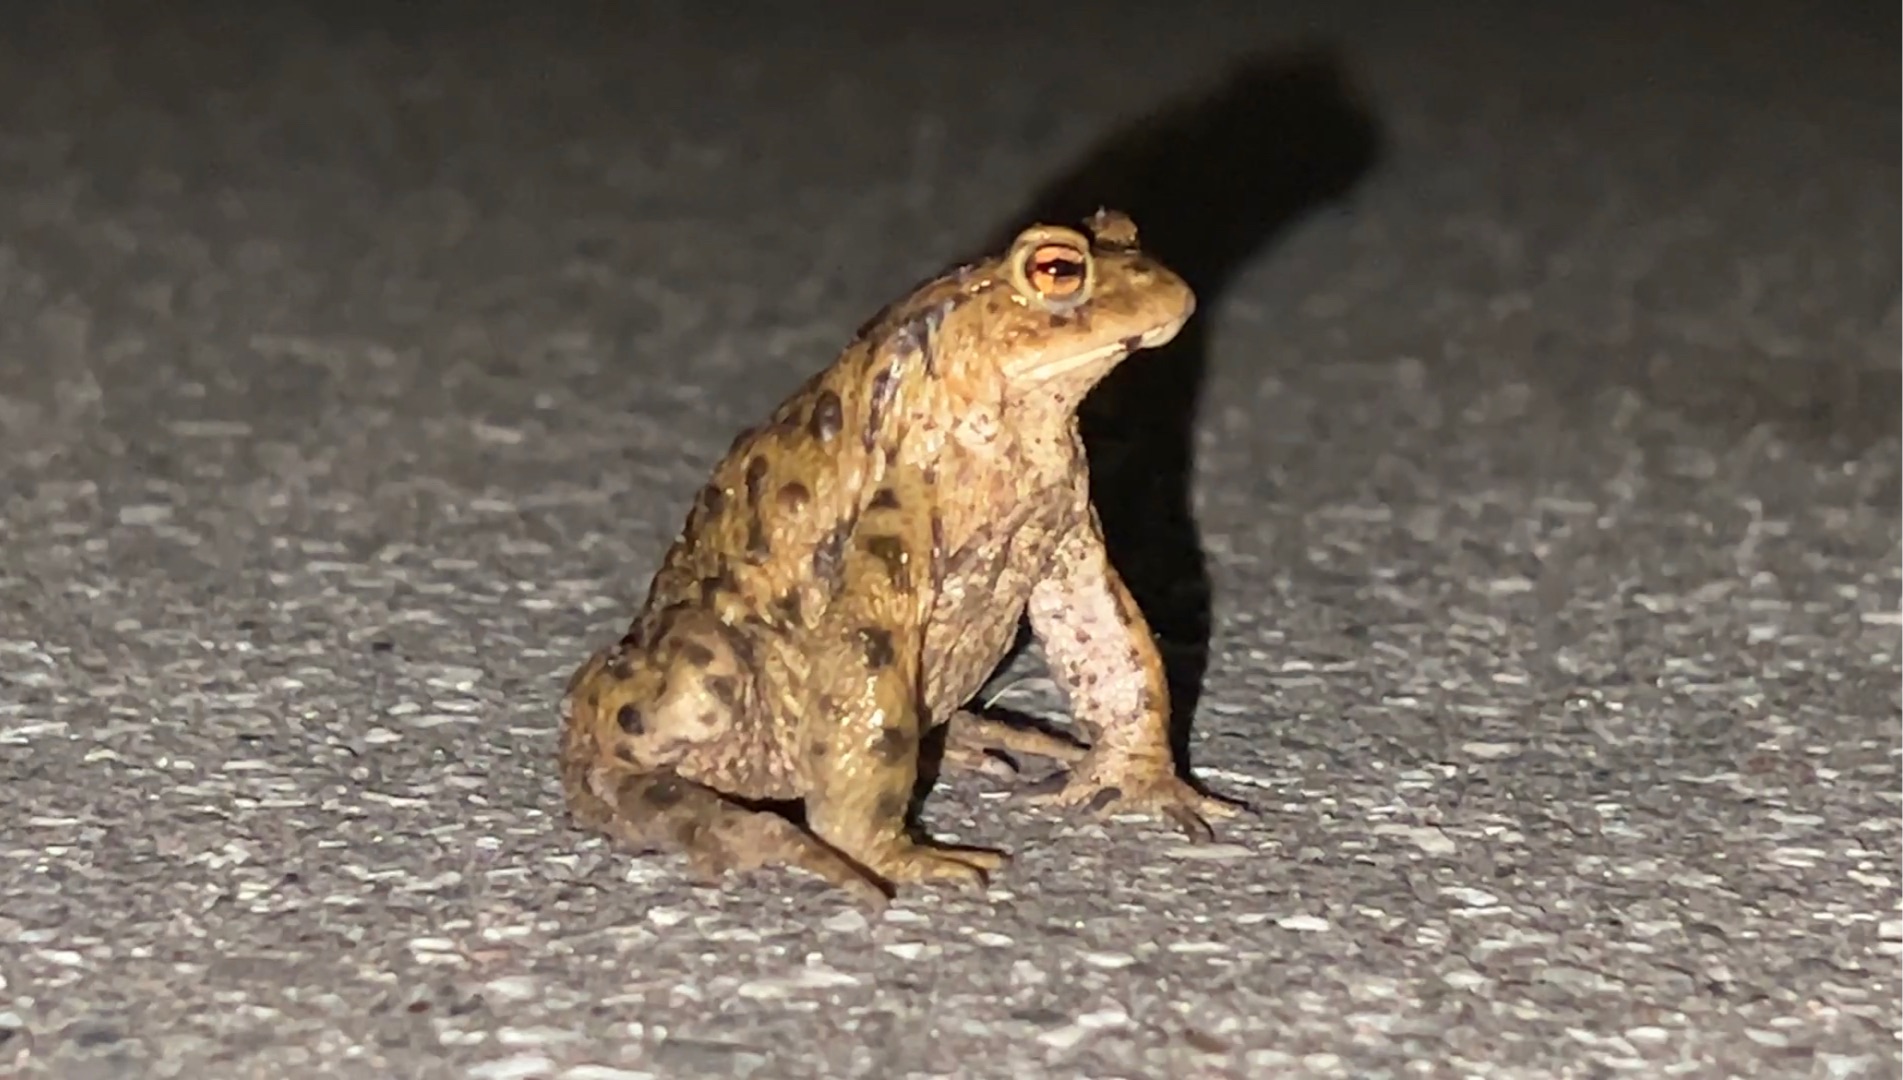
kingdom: Animalia
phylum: Chordata
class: Amphibia
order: Anura
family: Bufonidae
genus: Bufo
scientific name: Bufo bufo
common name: Skrubtudse
